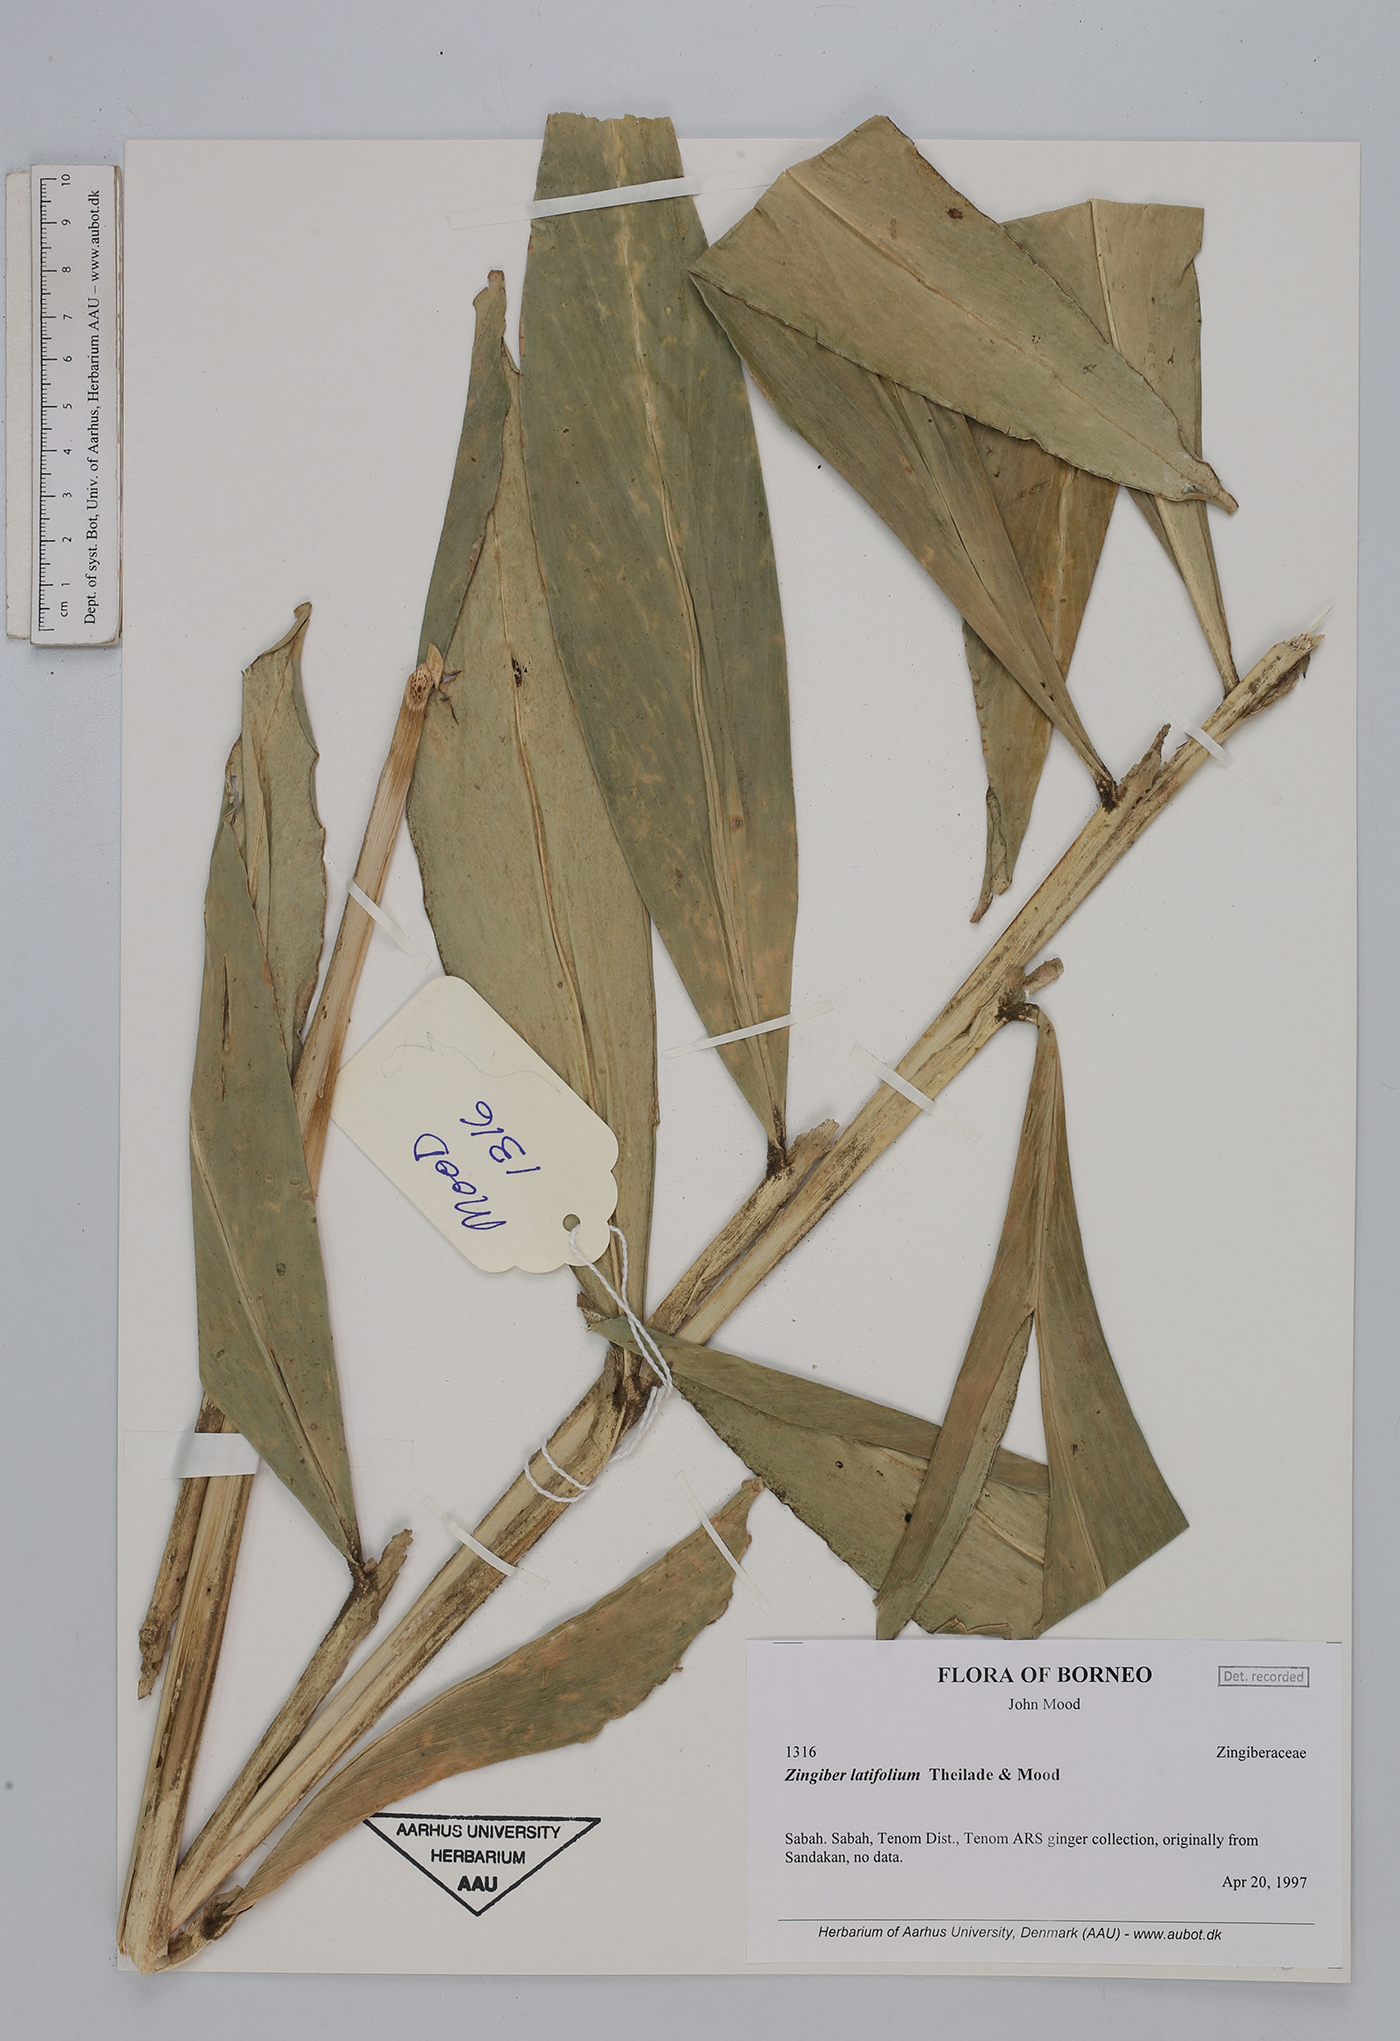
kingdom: Plantae
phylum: Tracheophyta
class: Liliopsida
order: Zingiberales
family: Zingiberaceae
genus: Zingiber
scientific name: Zingiber latifolium
